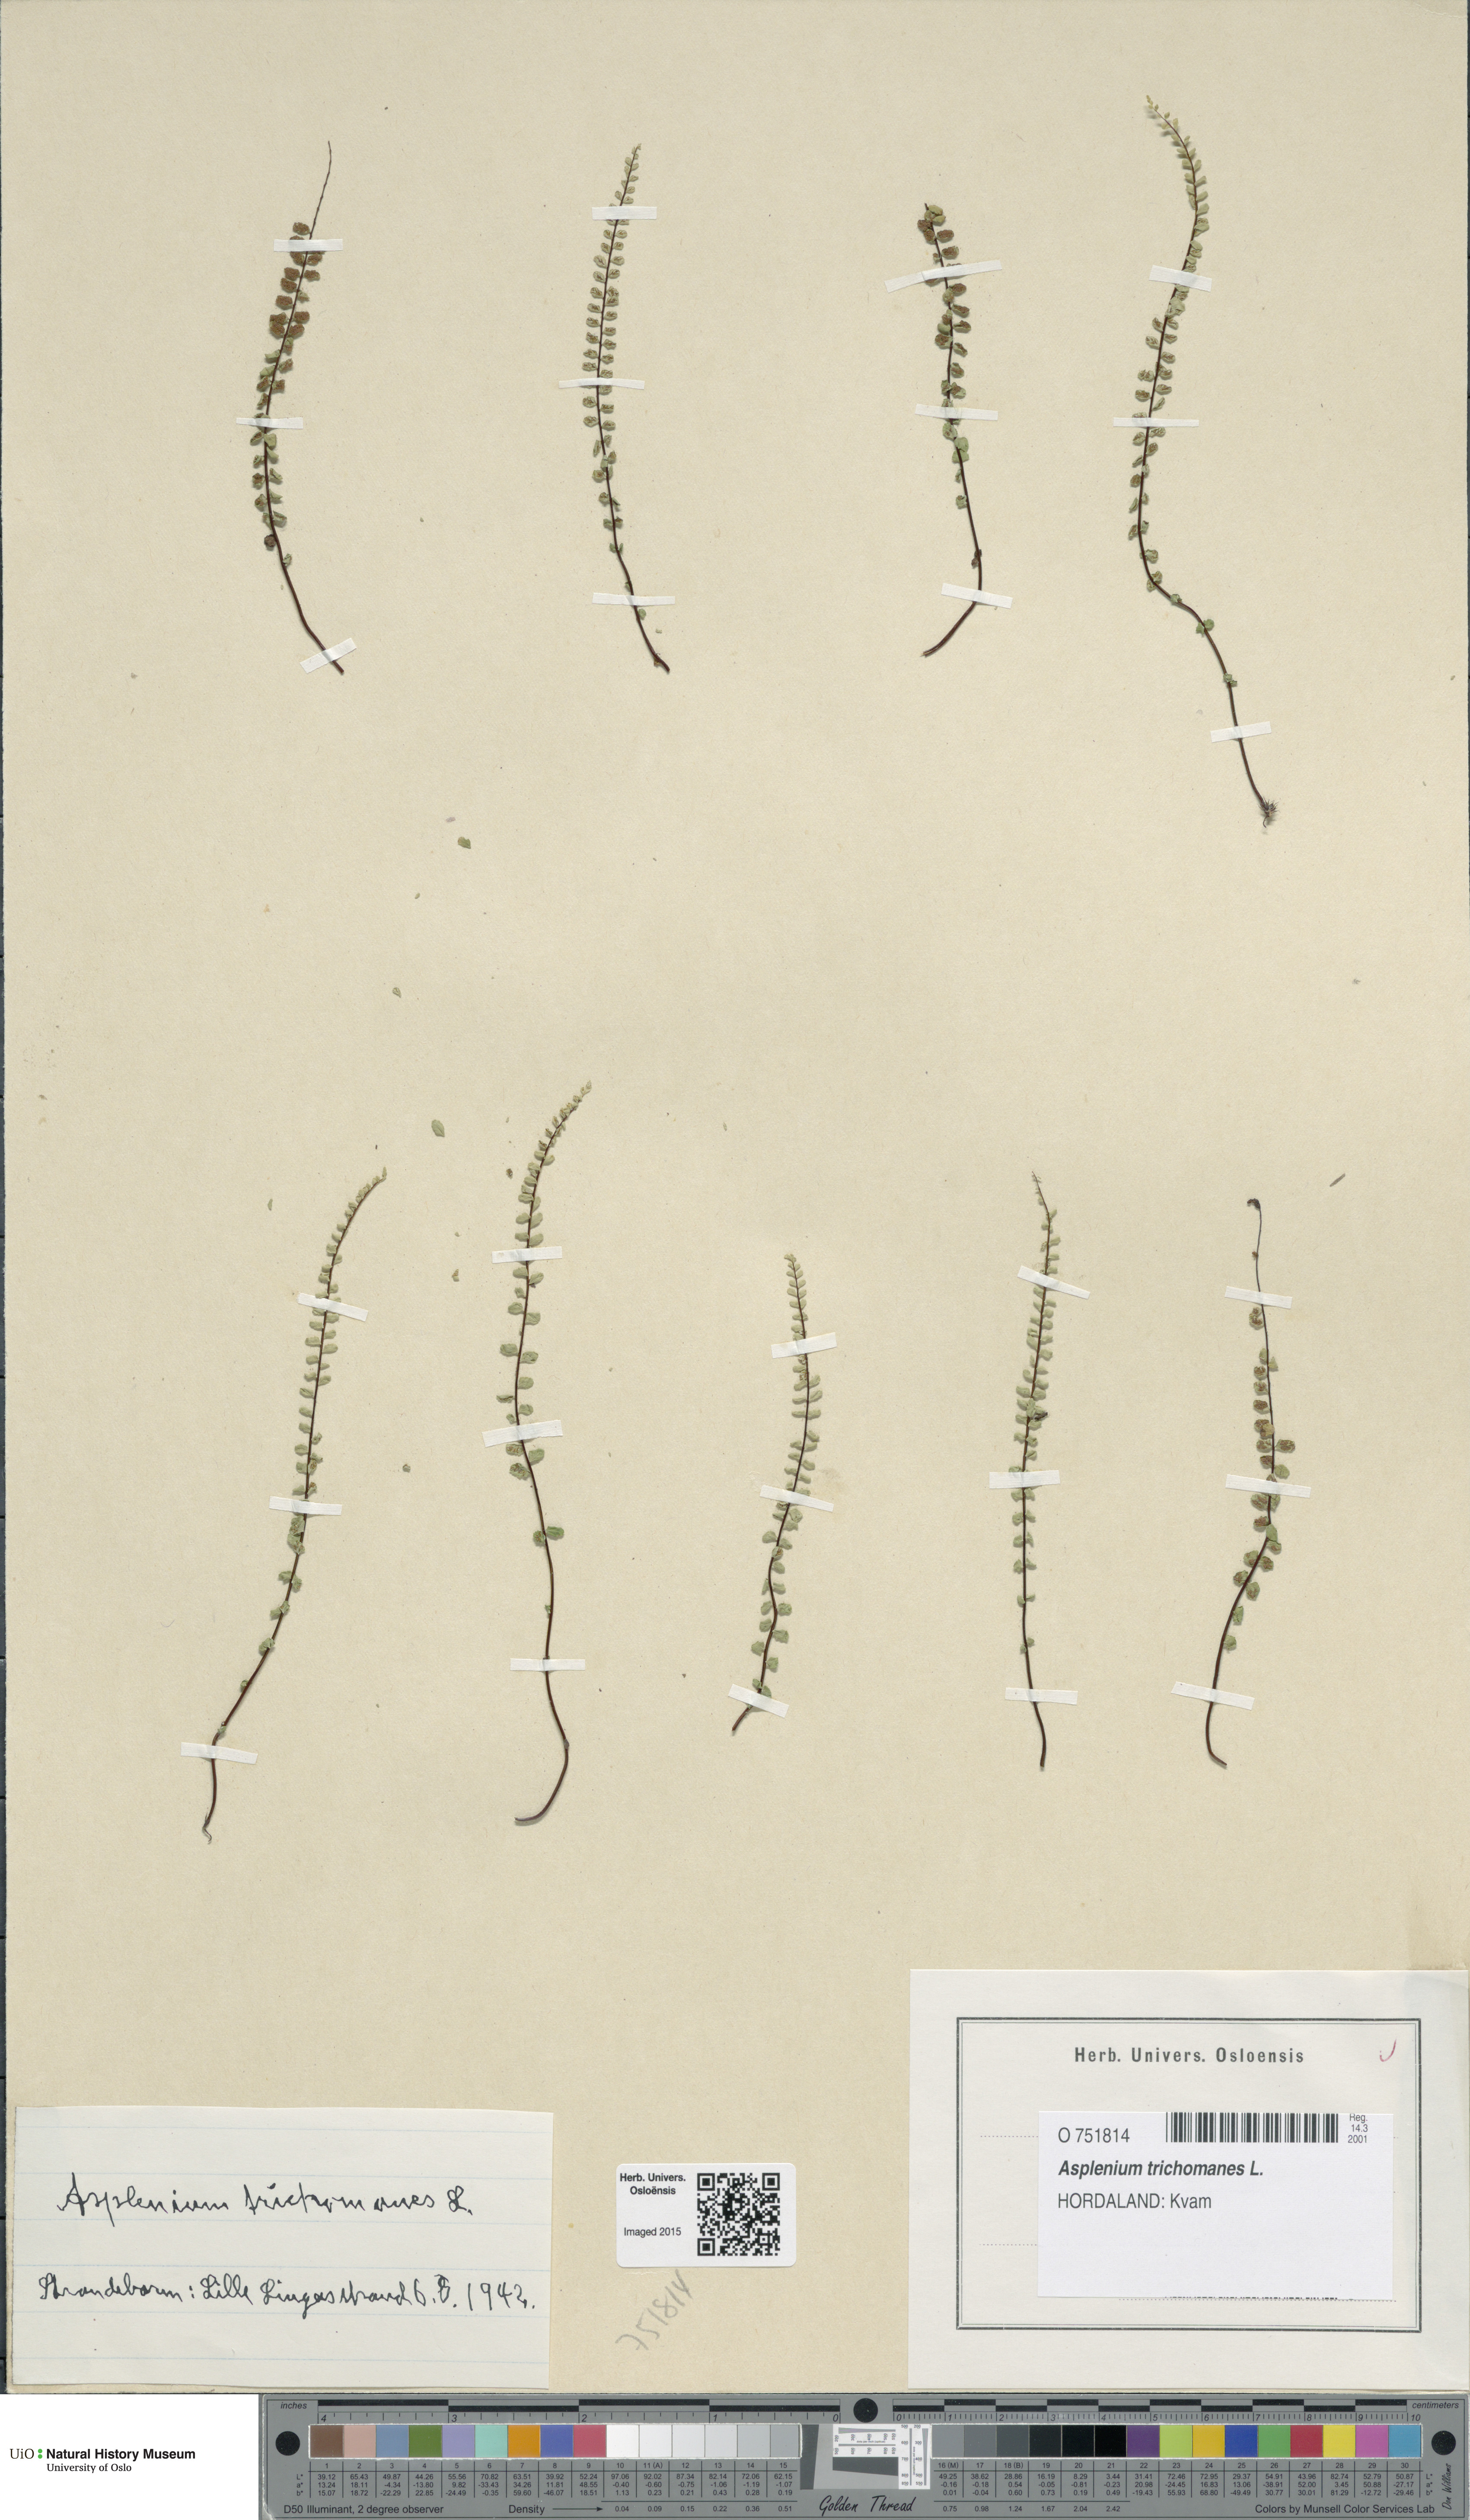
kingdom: Plantae
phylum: Tracheophyta
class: Polypodiopsida
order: Polypodiales
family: Aspleniaceae
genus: Asplenium
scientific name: Asplenium trichomanes
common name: Maidenhair spleenwort
